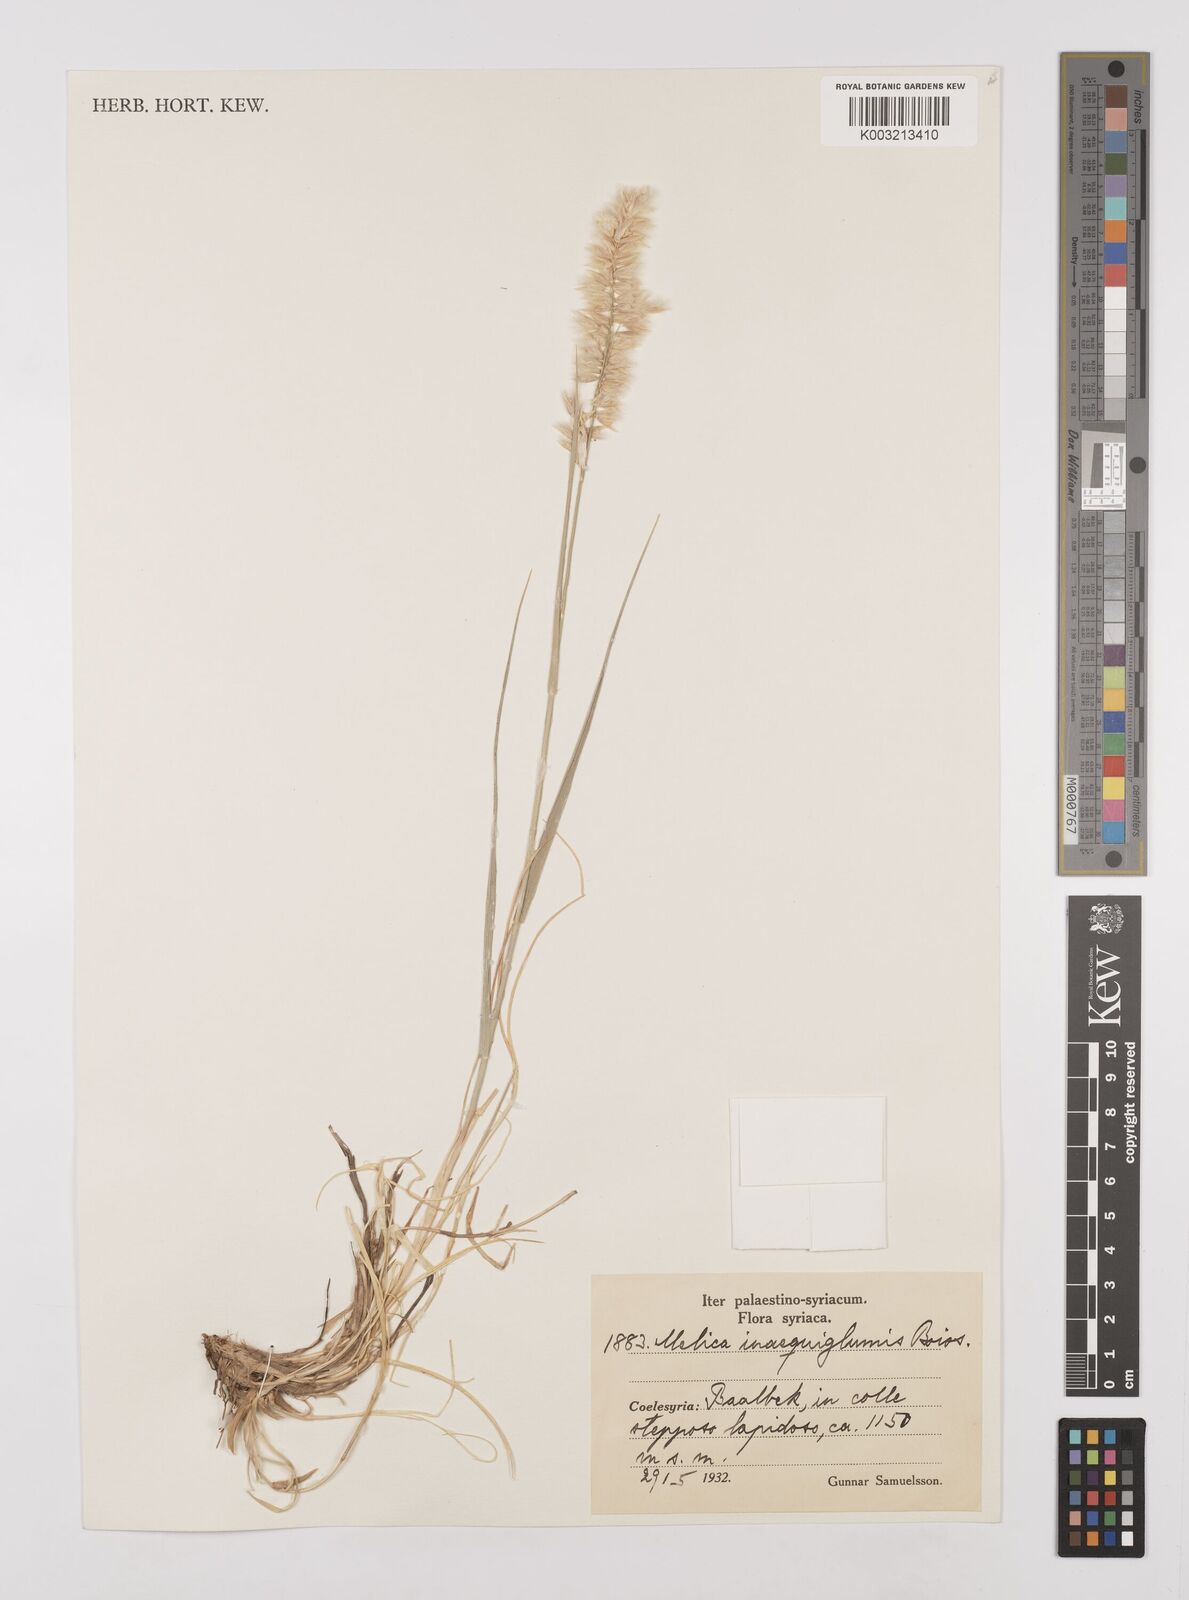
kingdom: Plantae
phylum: Tracheophyta
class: Liliopsida
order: Poales
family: Poaceae
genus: Melica
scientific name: Melica persica
